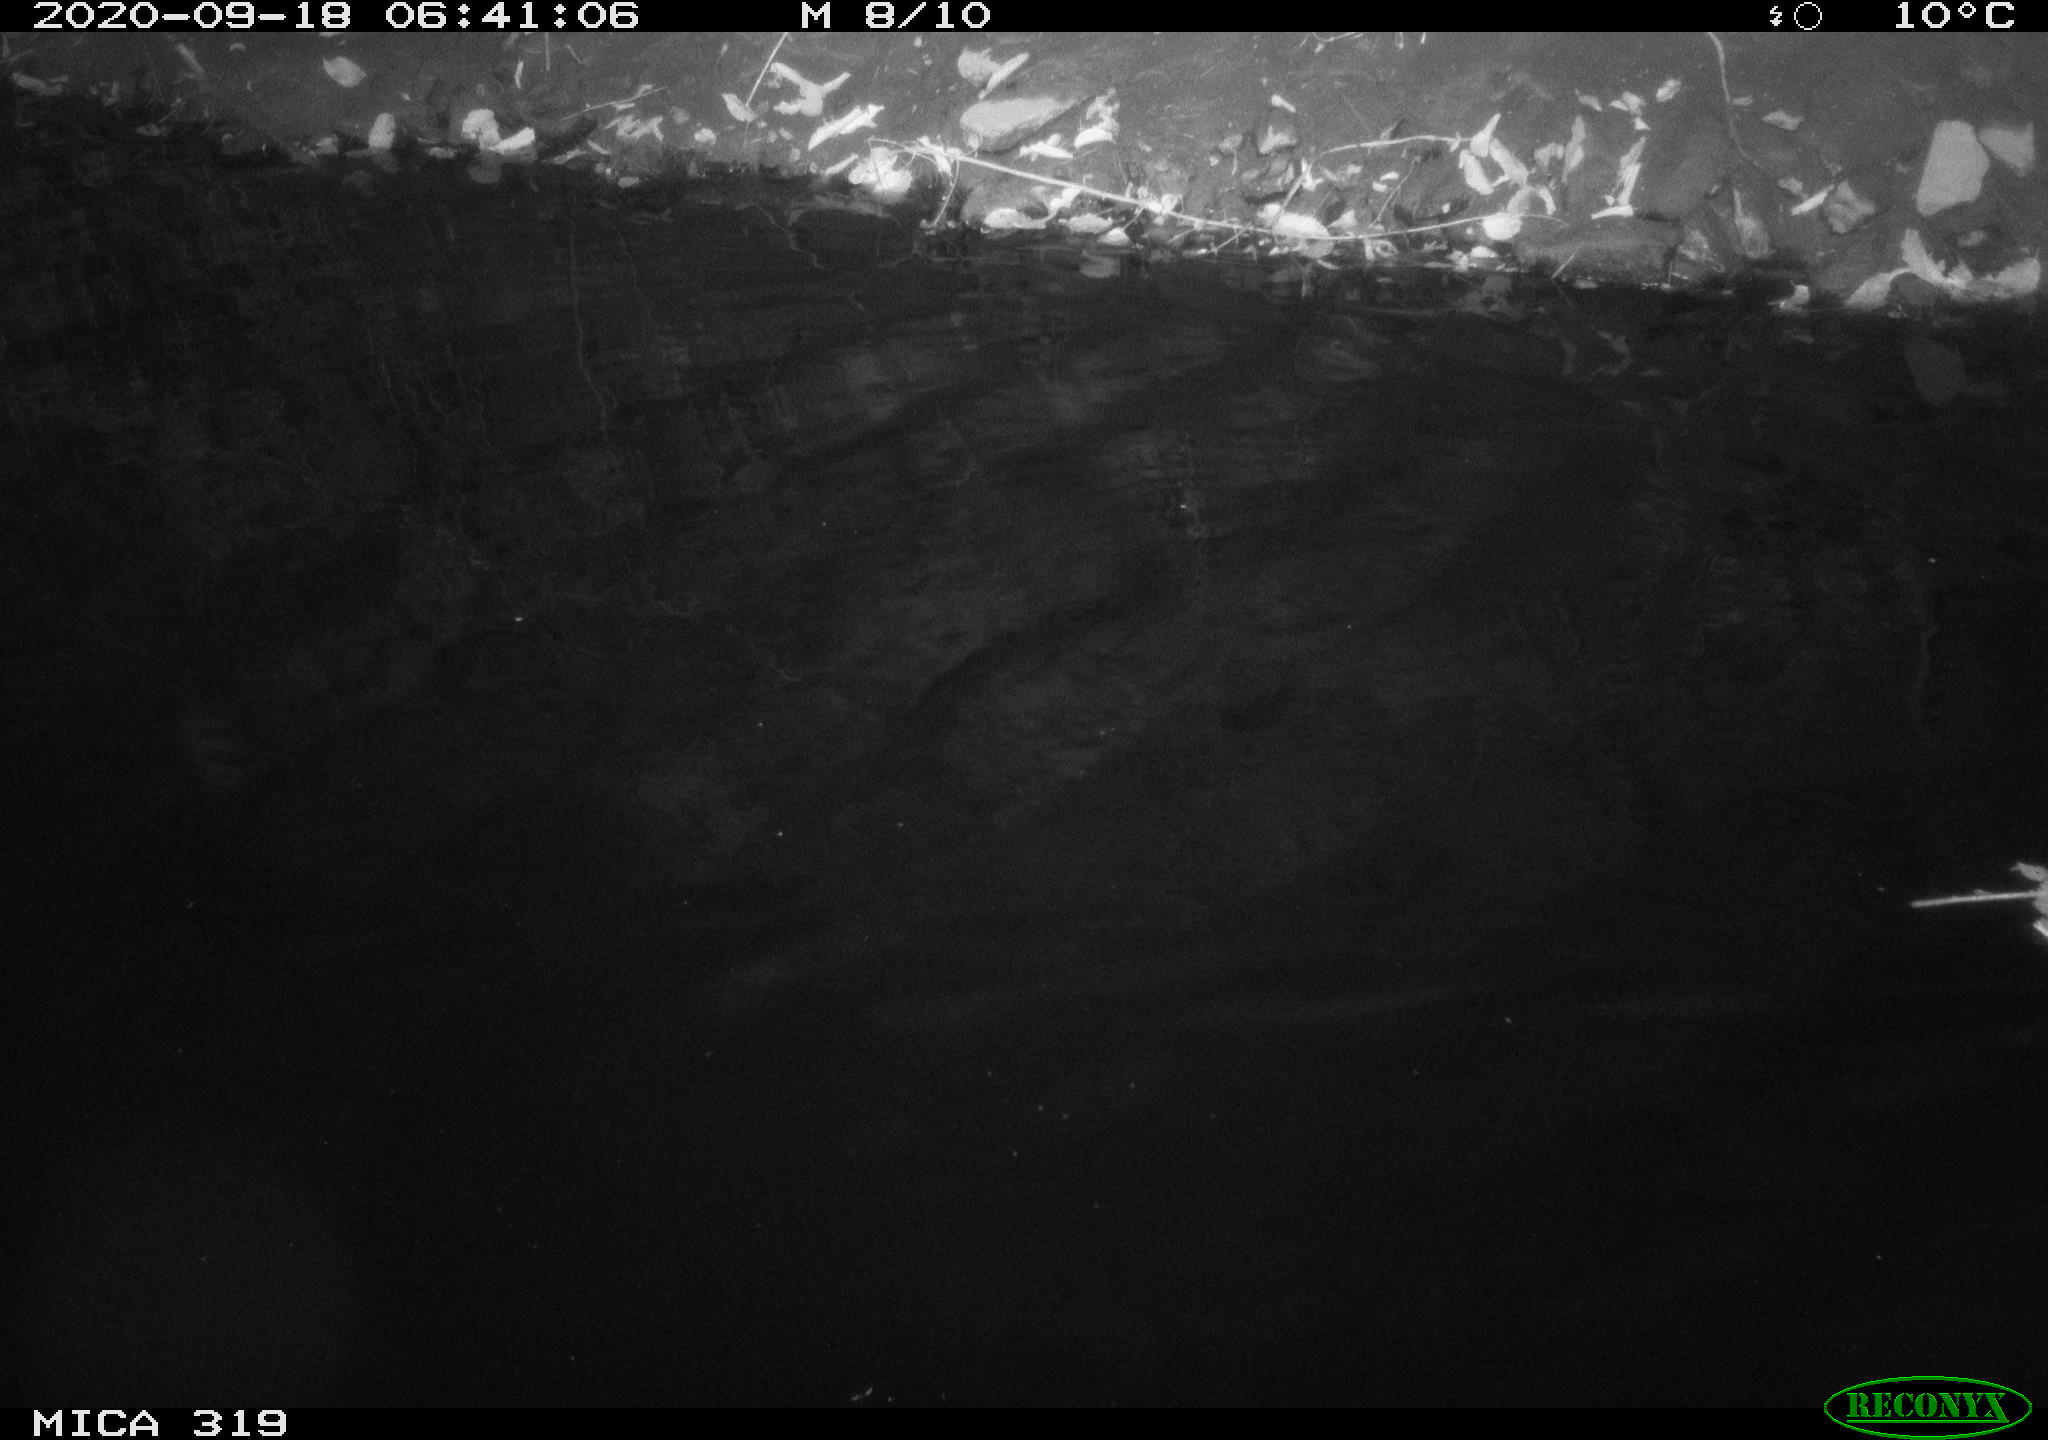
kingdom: Animalia
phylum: Chordata
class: Aves
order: Anseriformes
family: Anatidae
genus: Anas
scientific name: Anas platyrhynchos
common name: Mallard
